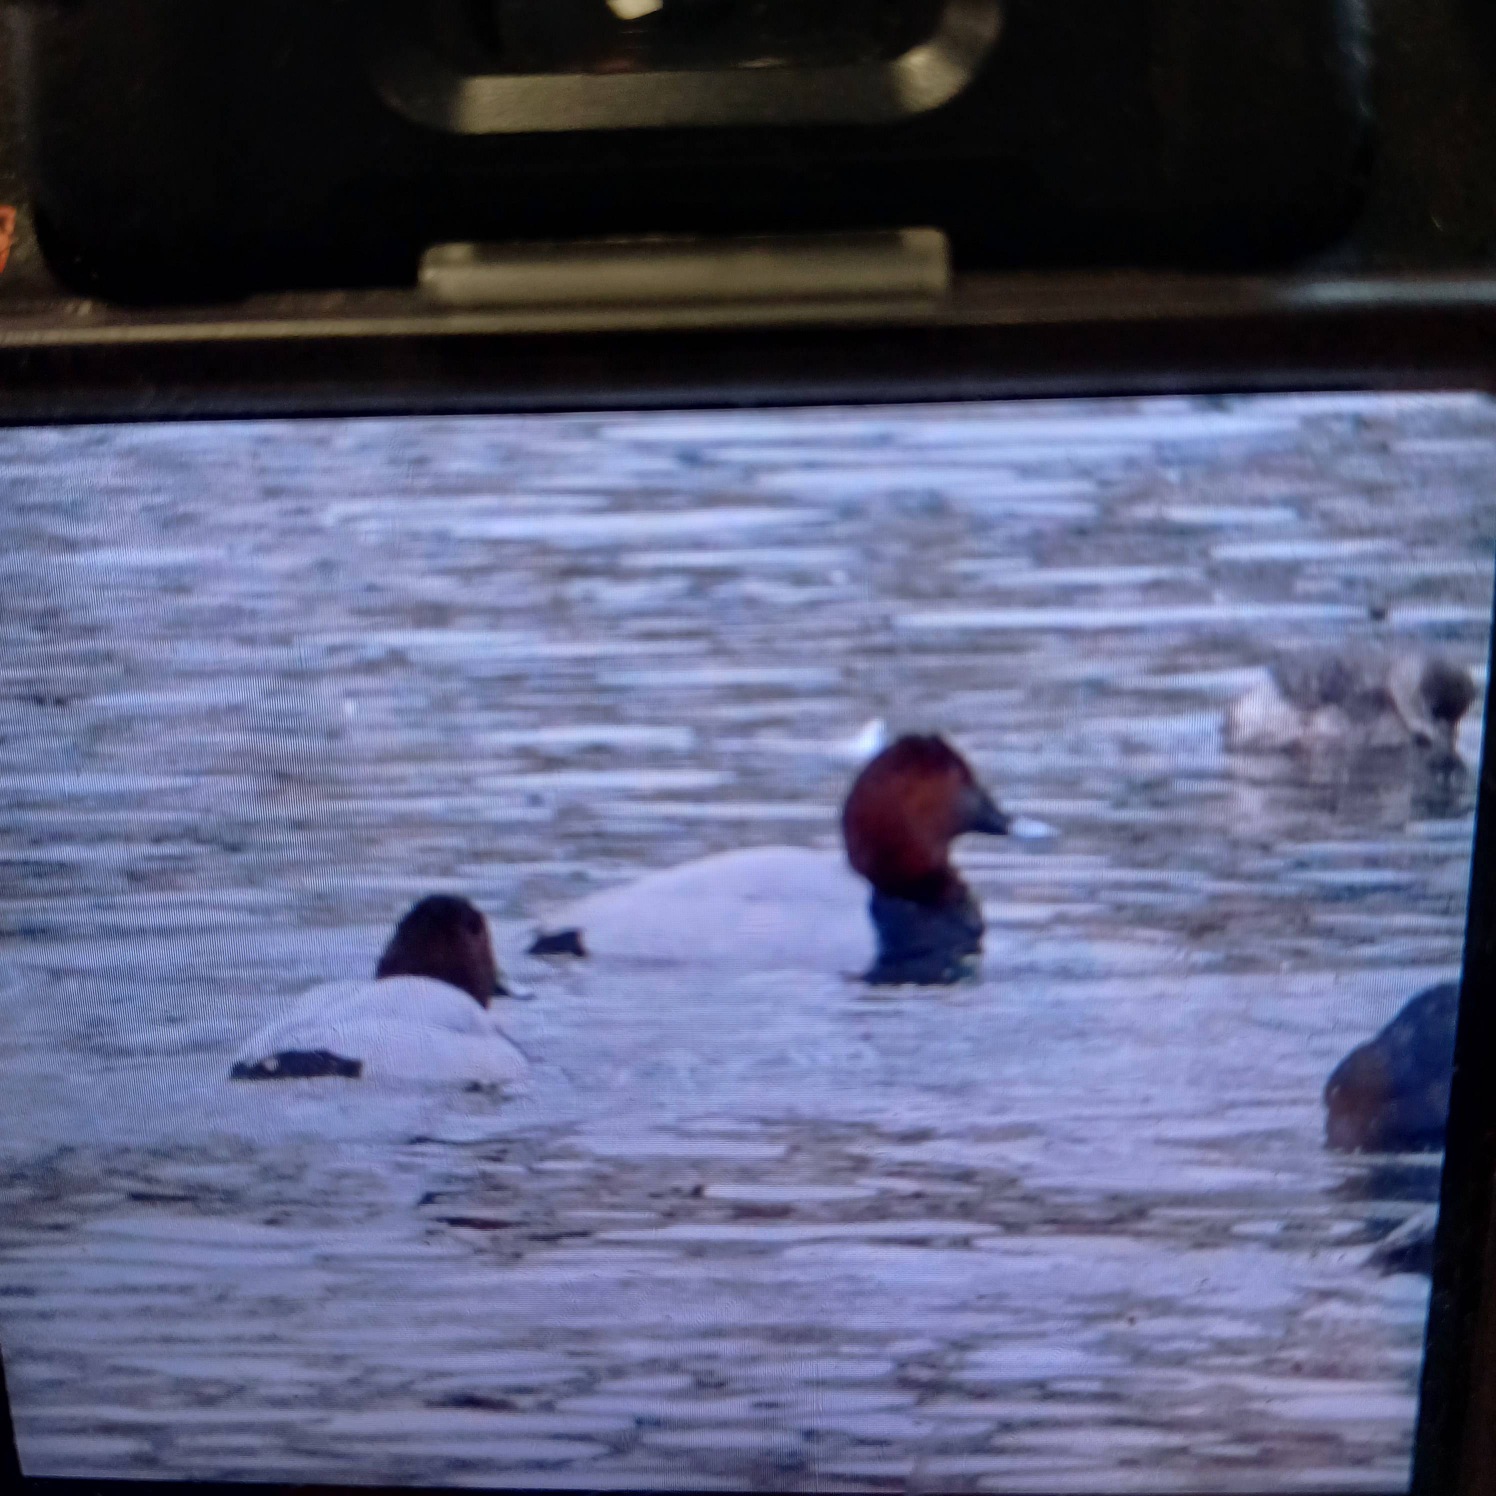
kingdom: Animalia
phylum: Chordata
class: Aves
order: Anseriformes
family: Anatidae
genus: Aythya
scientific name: Aythya ferina
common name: Taffeland
